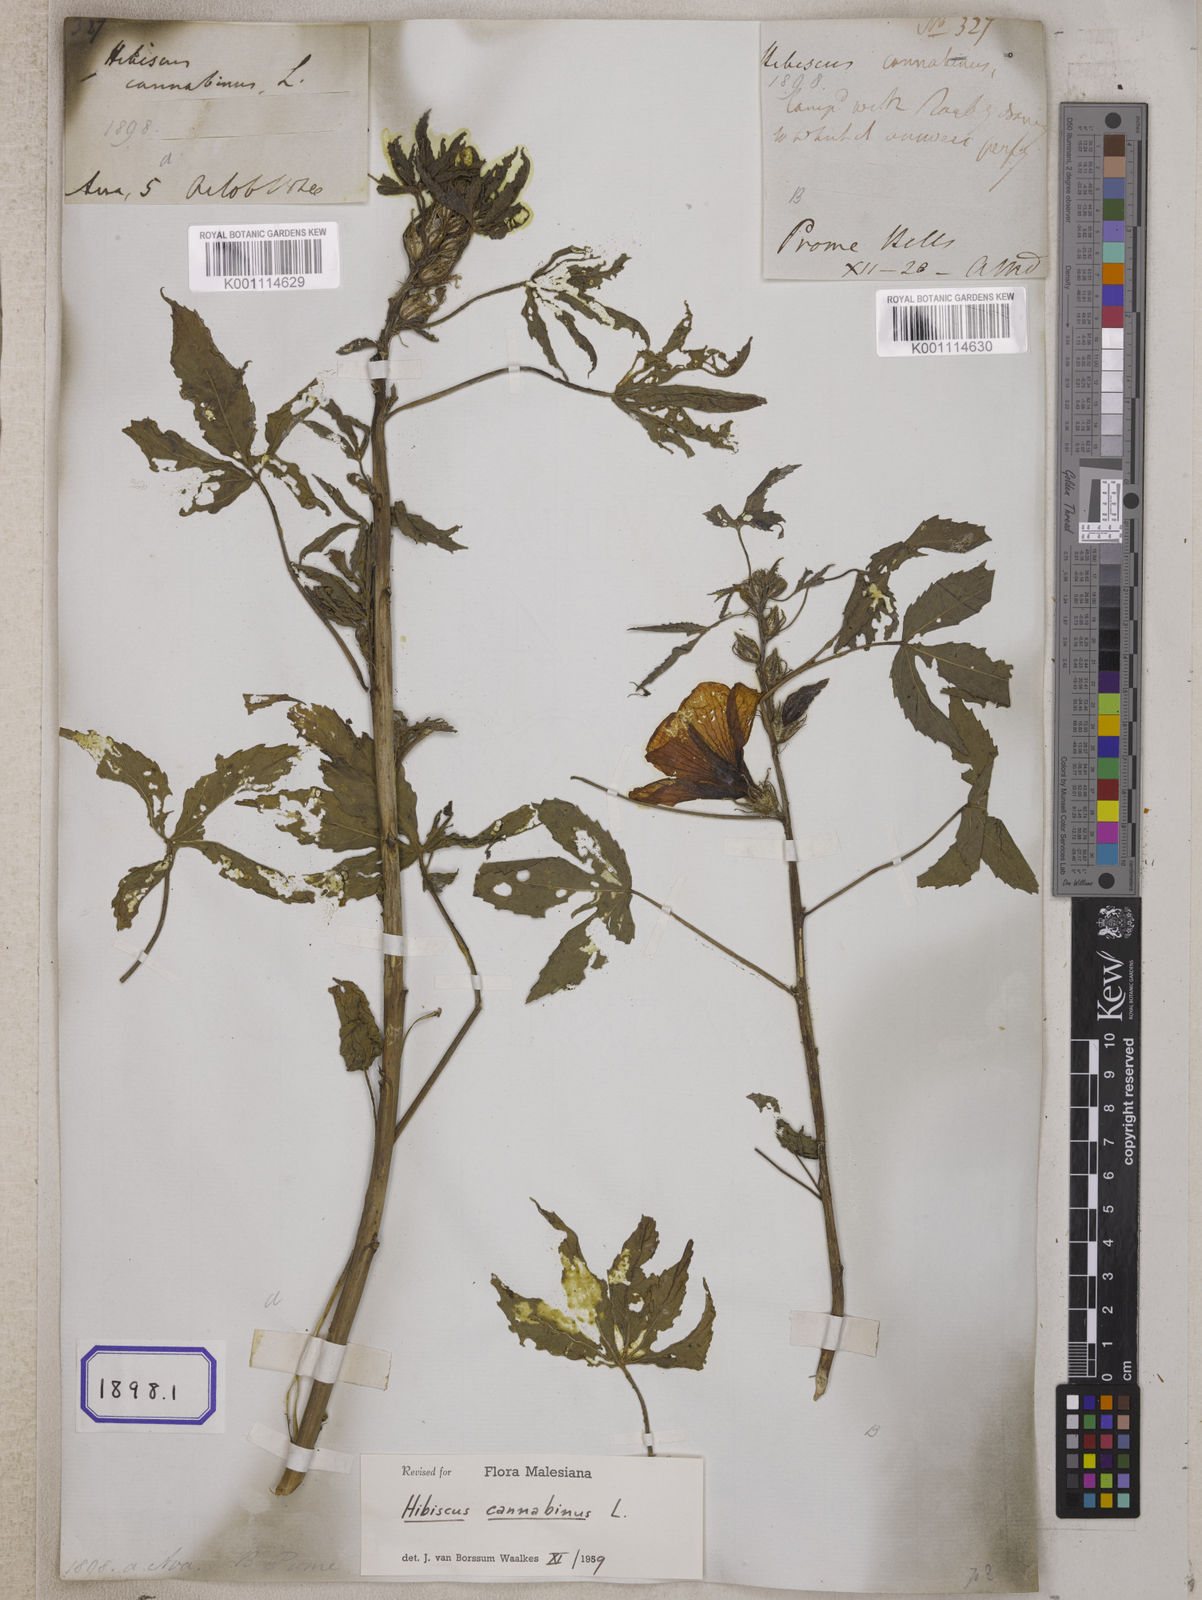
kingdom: Plantae
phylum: Tracheophyta
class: Magnoliopsida
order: Malvales
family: Malvaceae
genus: Hibiscus
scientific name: Hibiscus cannabinus
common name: Brown indianhemp
